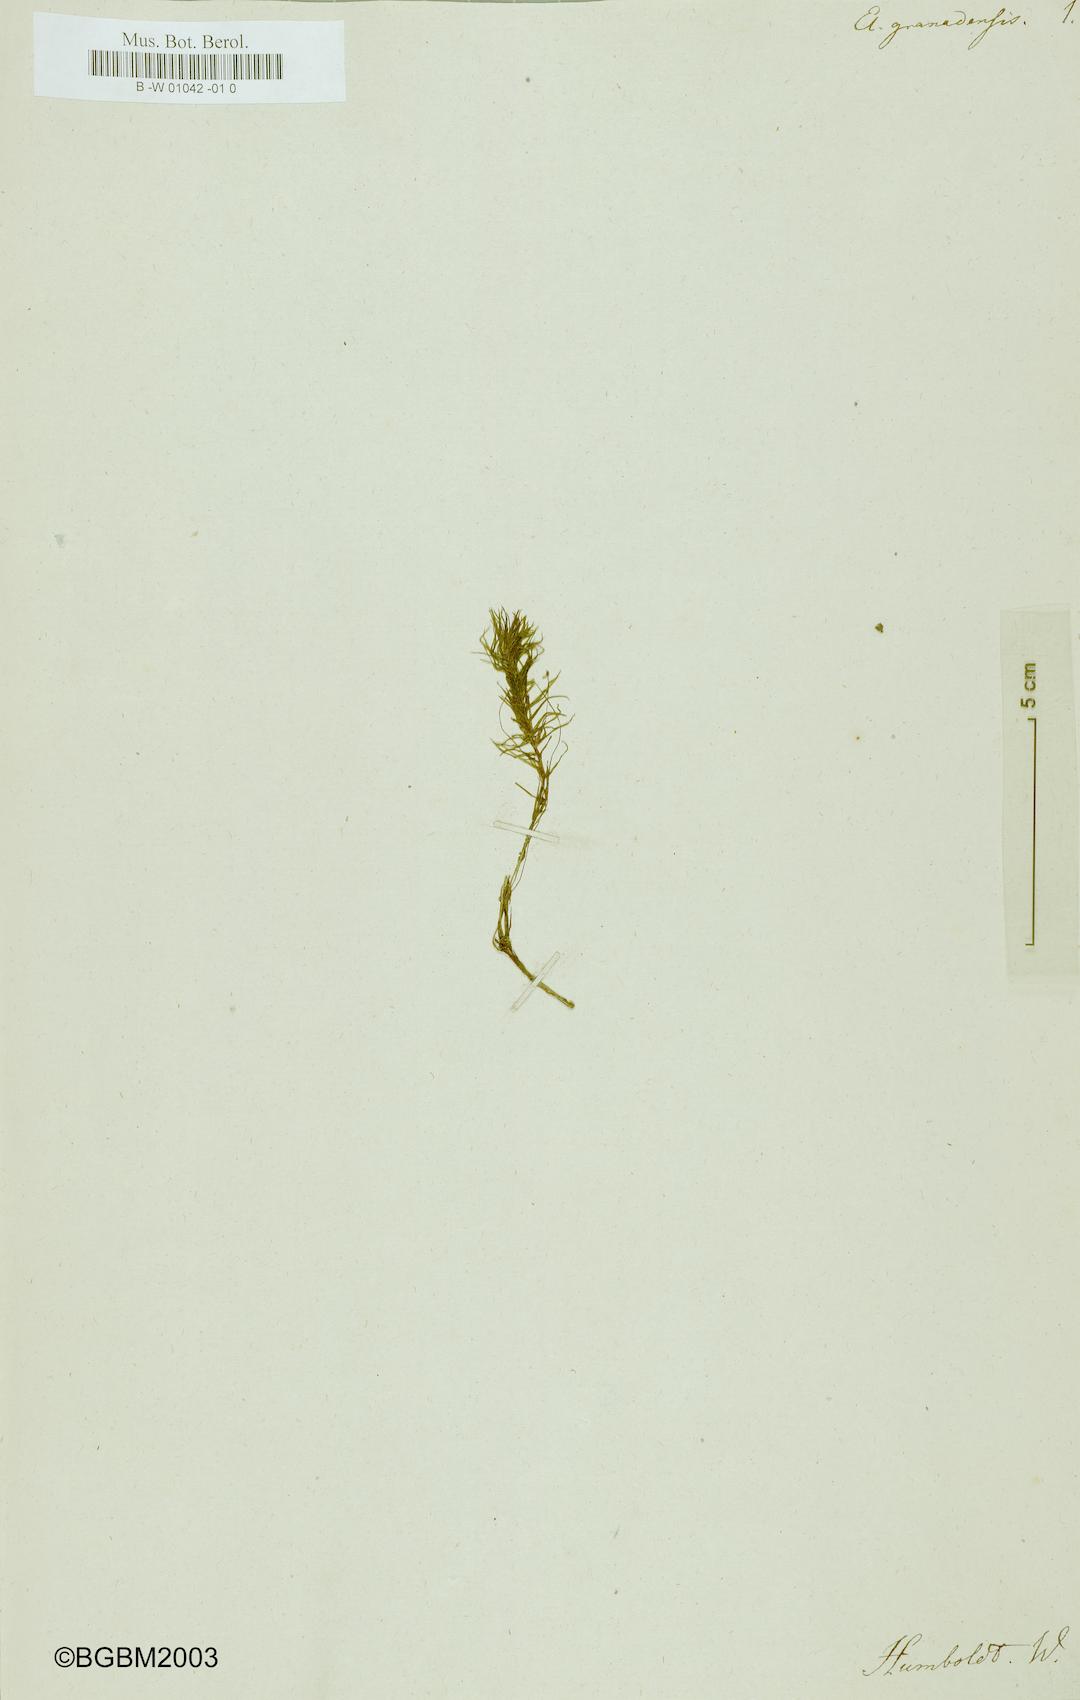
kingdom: Plantae
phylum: Tracheophyta
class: Liliopsida
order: Alismatales
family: Hydrocharitaceae
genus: Elodea
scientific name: Elodea granadensis
